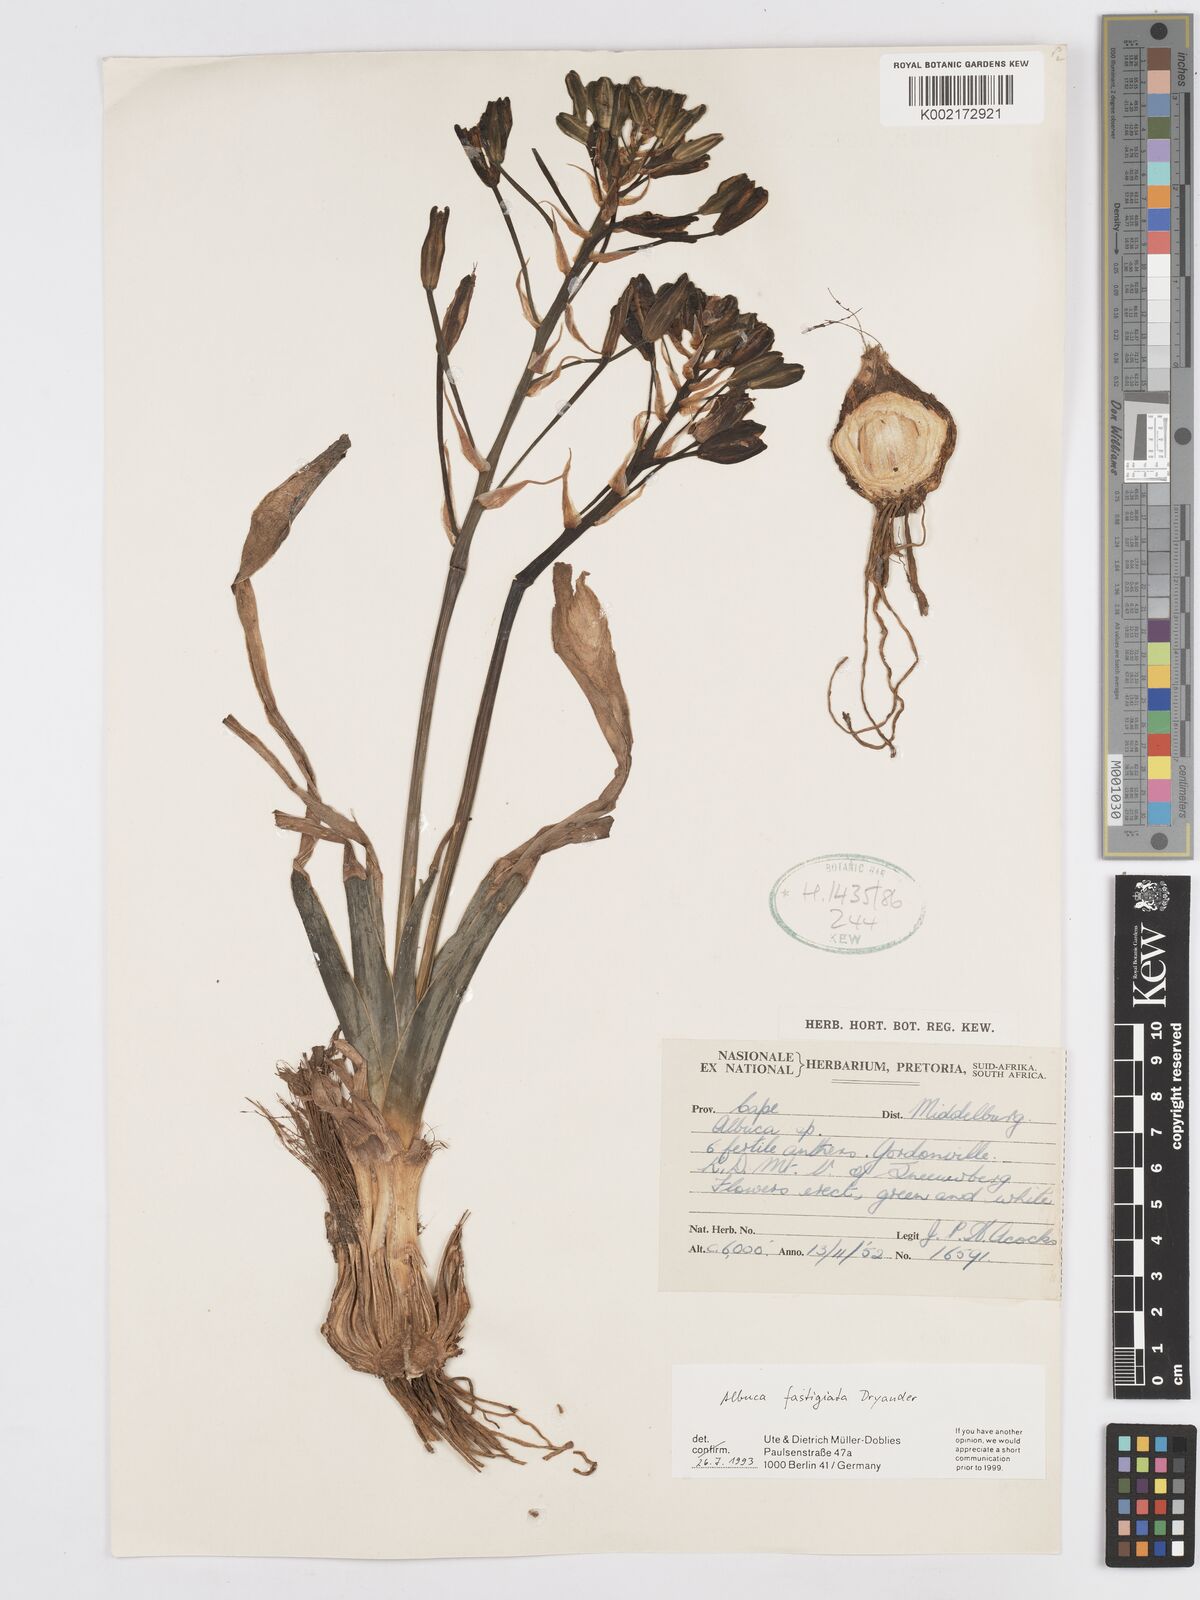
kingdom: Plantae
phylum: Tracheophyta
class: Liliopsida
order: Asparagales
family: Asparagaceae
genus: Albuca
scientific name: Albuca fastigiata
